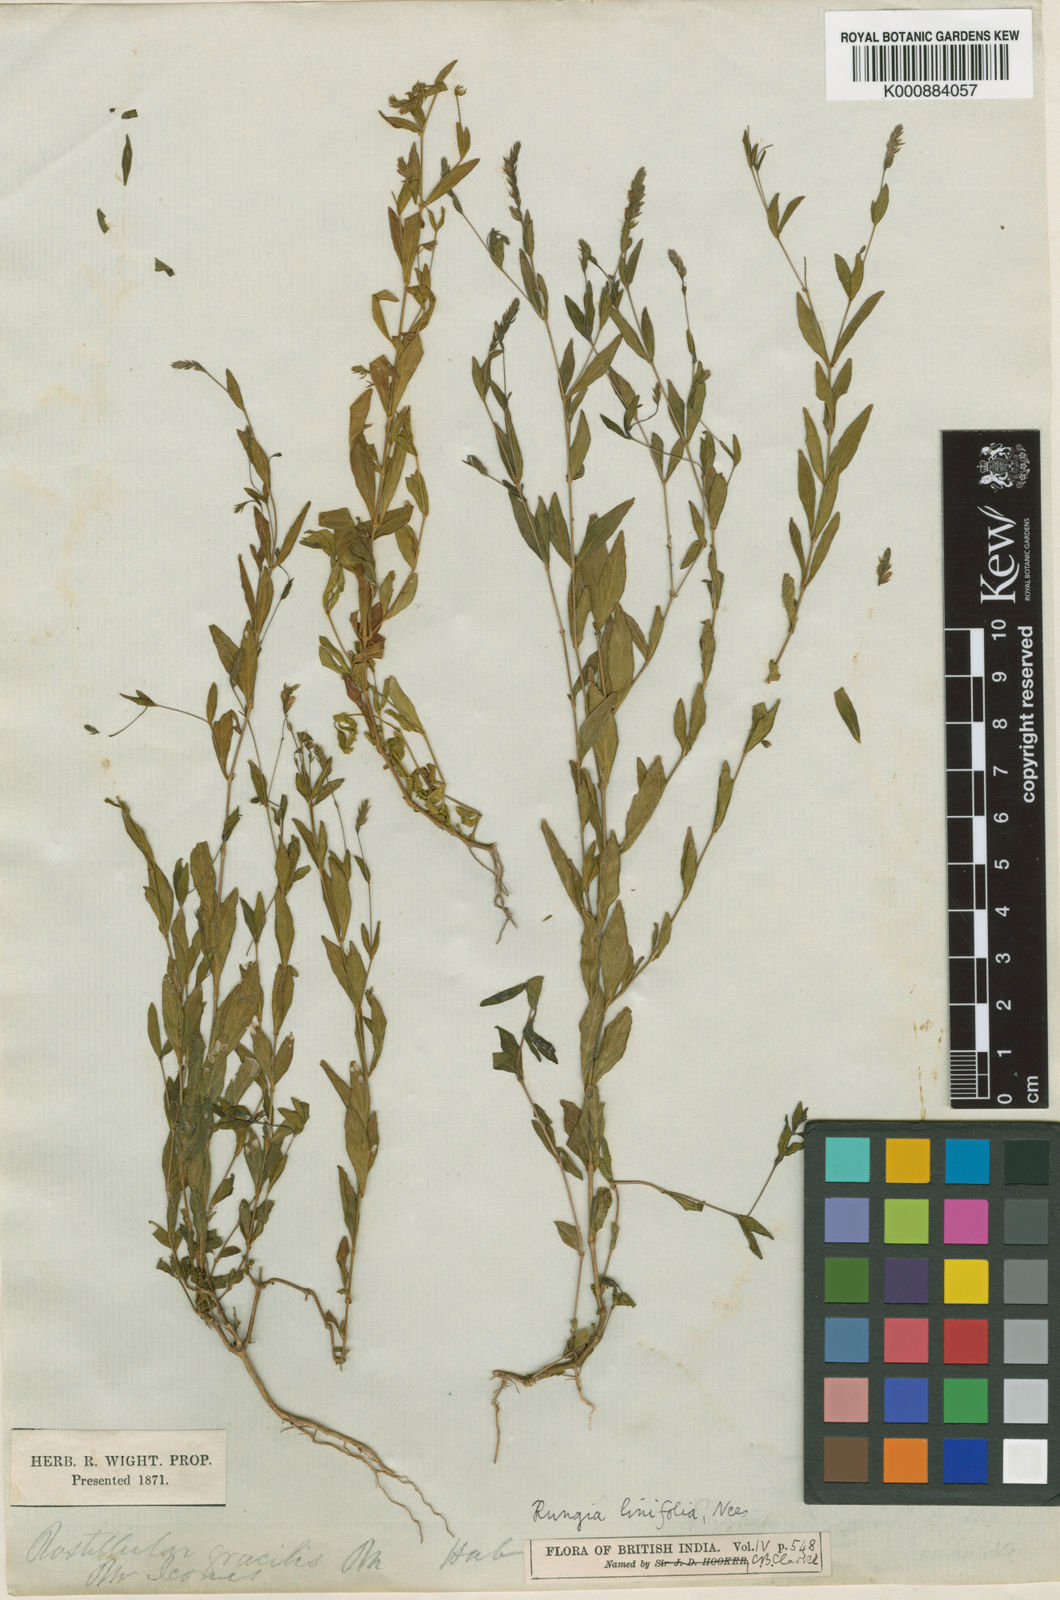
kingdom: Plantae
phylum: Tracheophyta
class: Magnoliopsida
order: Lamiales
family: Acanthaceae
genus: Justicia
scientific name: Justicia linifolia
